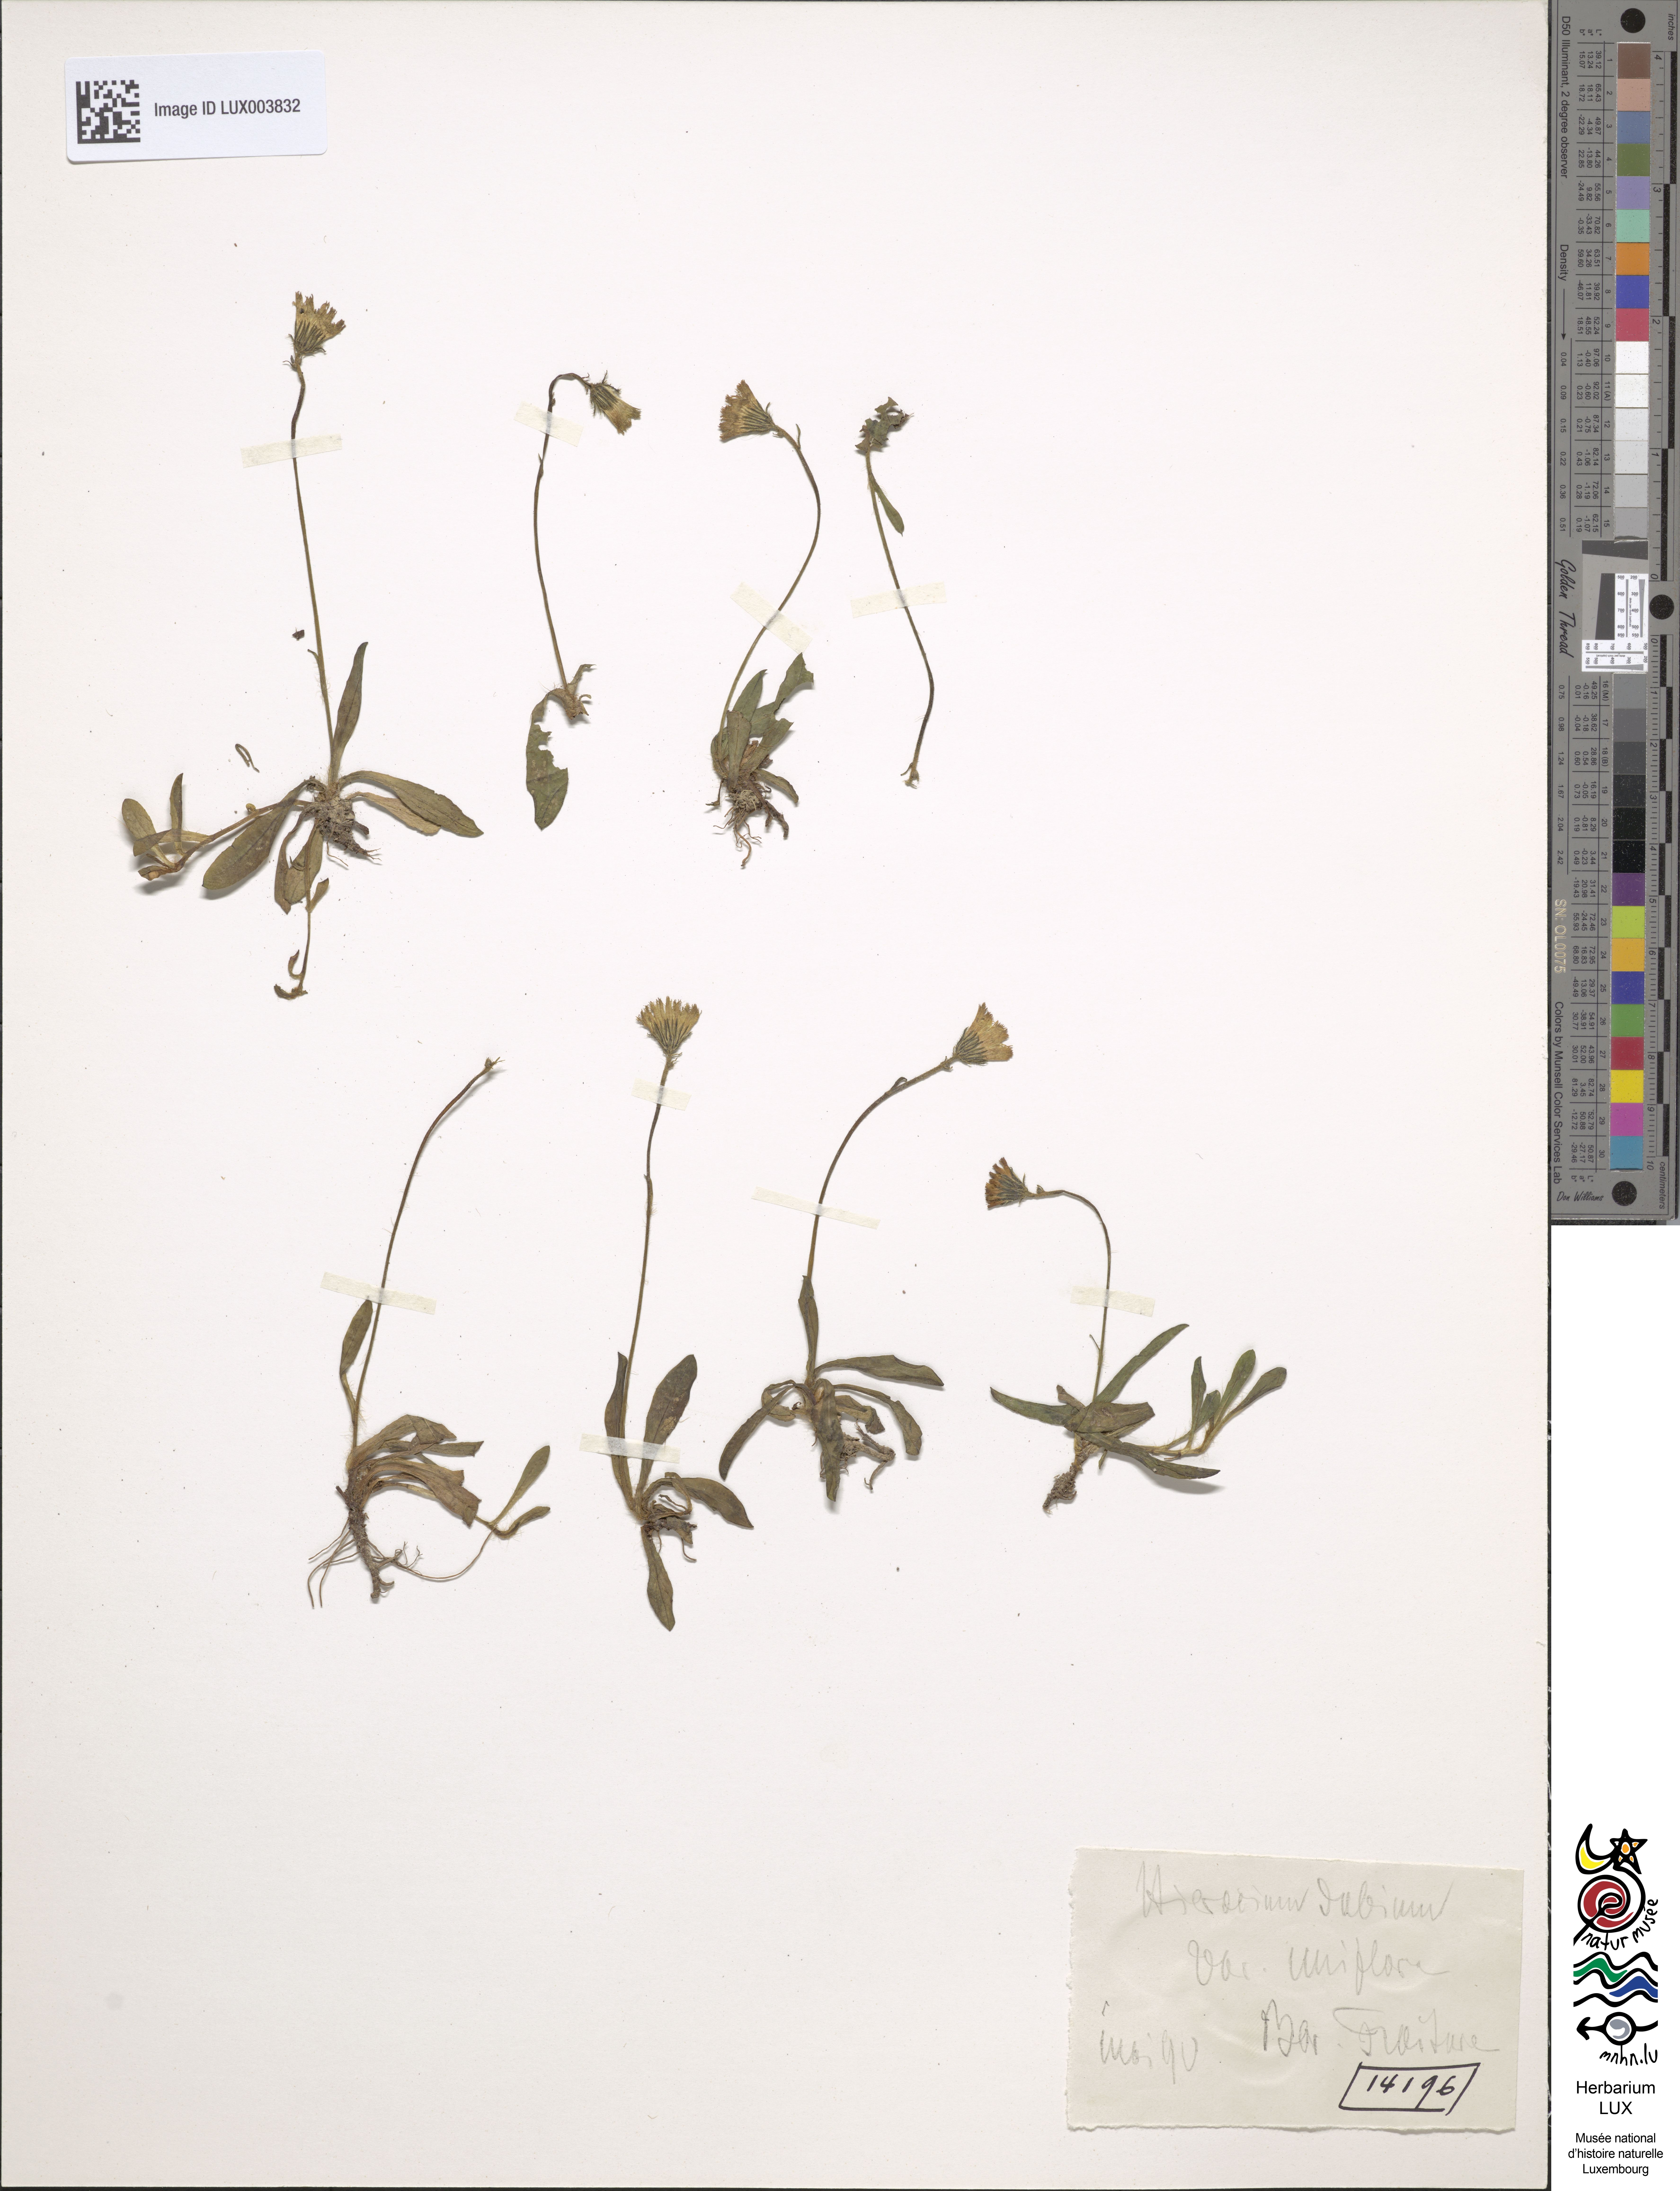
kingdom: Plantae
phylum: Tracheophyta
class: Magnoliopsida
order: Asterales
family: Asteraceae
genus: Hieracium
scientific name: Hieracium dubium
